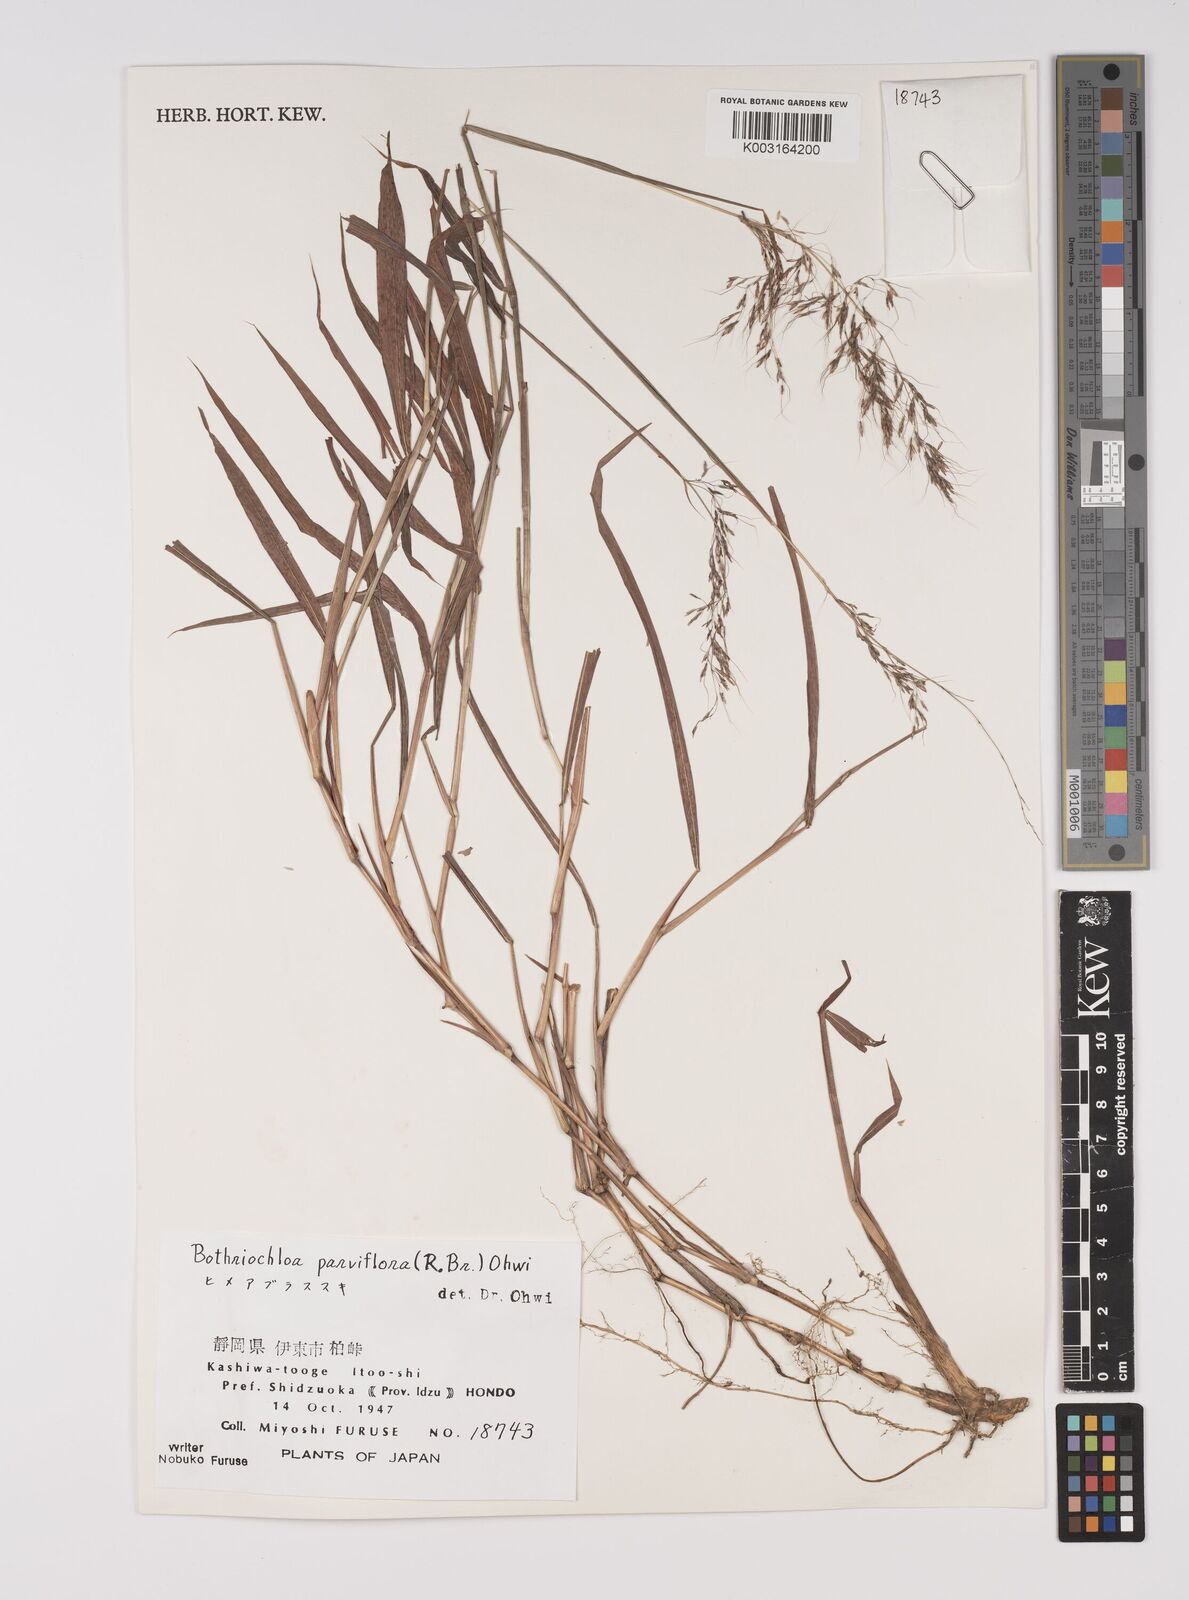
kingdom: Plantae
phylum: Tracheophyta
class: Liliopsida
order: Poales
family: Poaceae
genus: Capillipedium
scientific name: Capillipedium parviflorum
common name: Golden-beard
